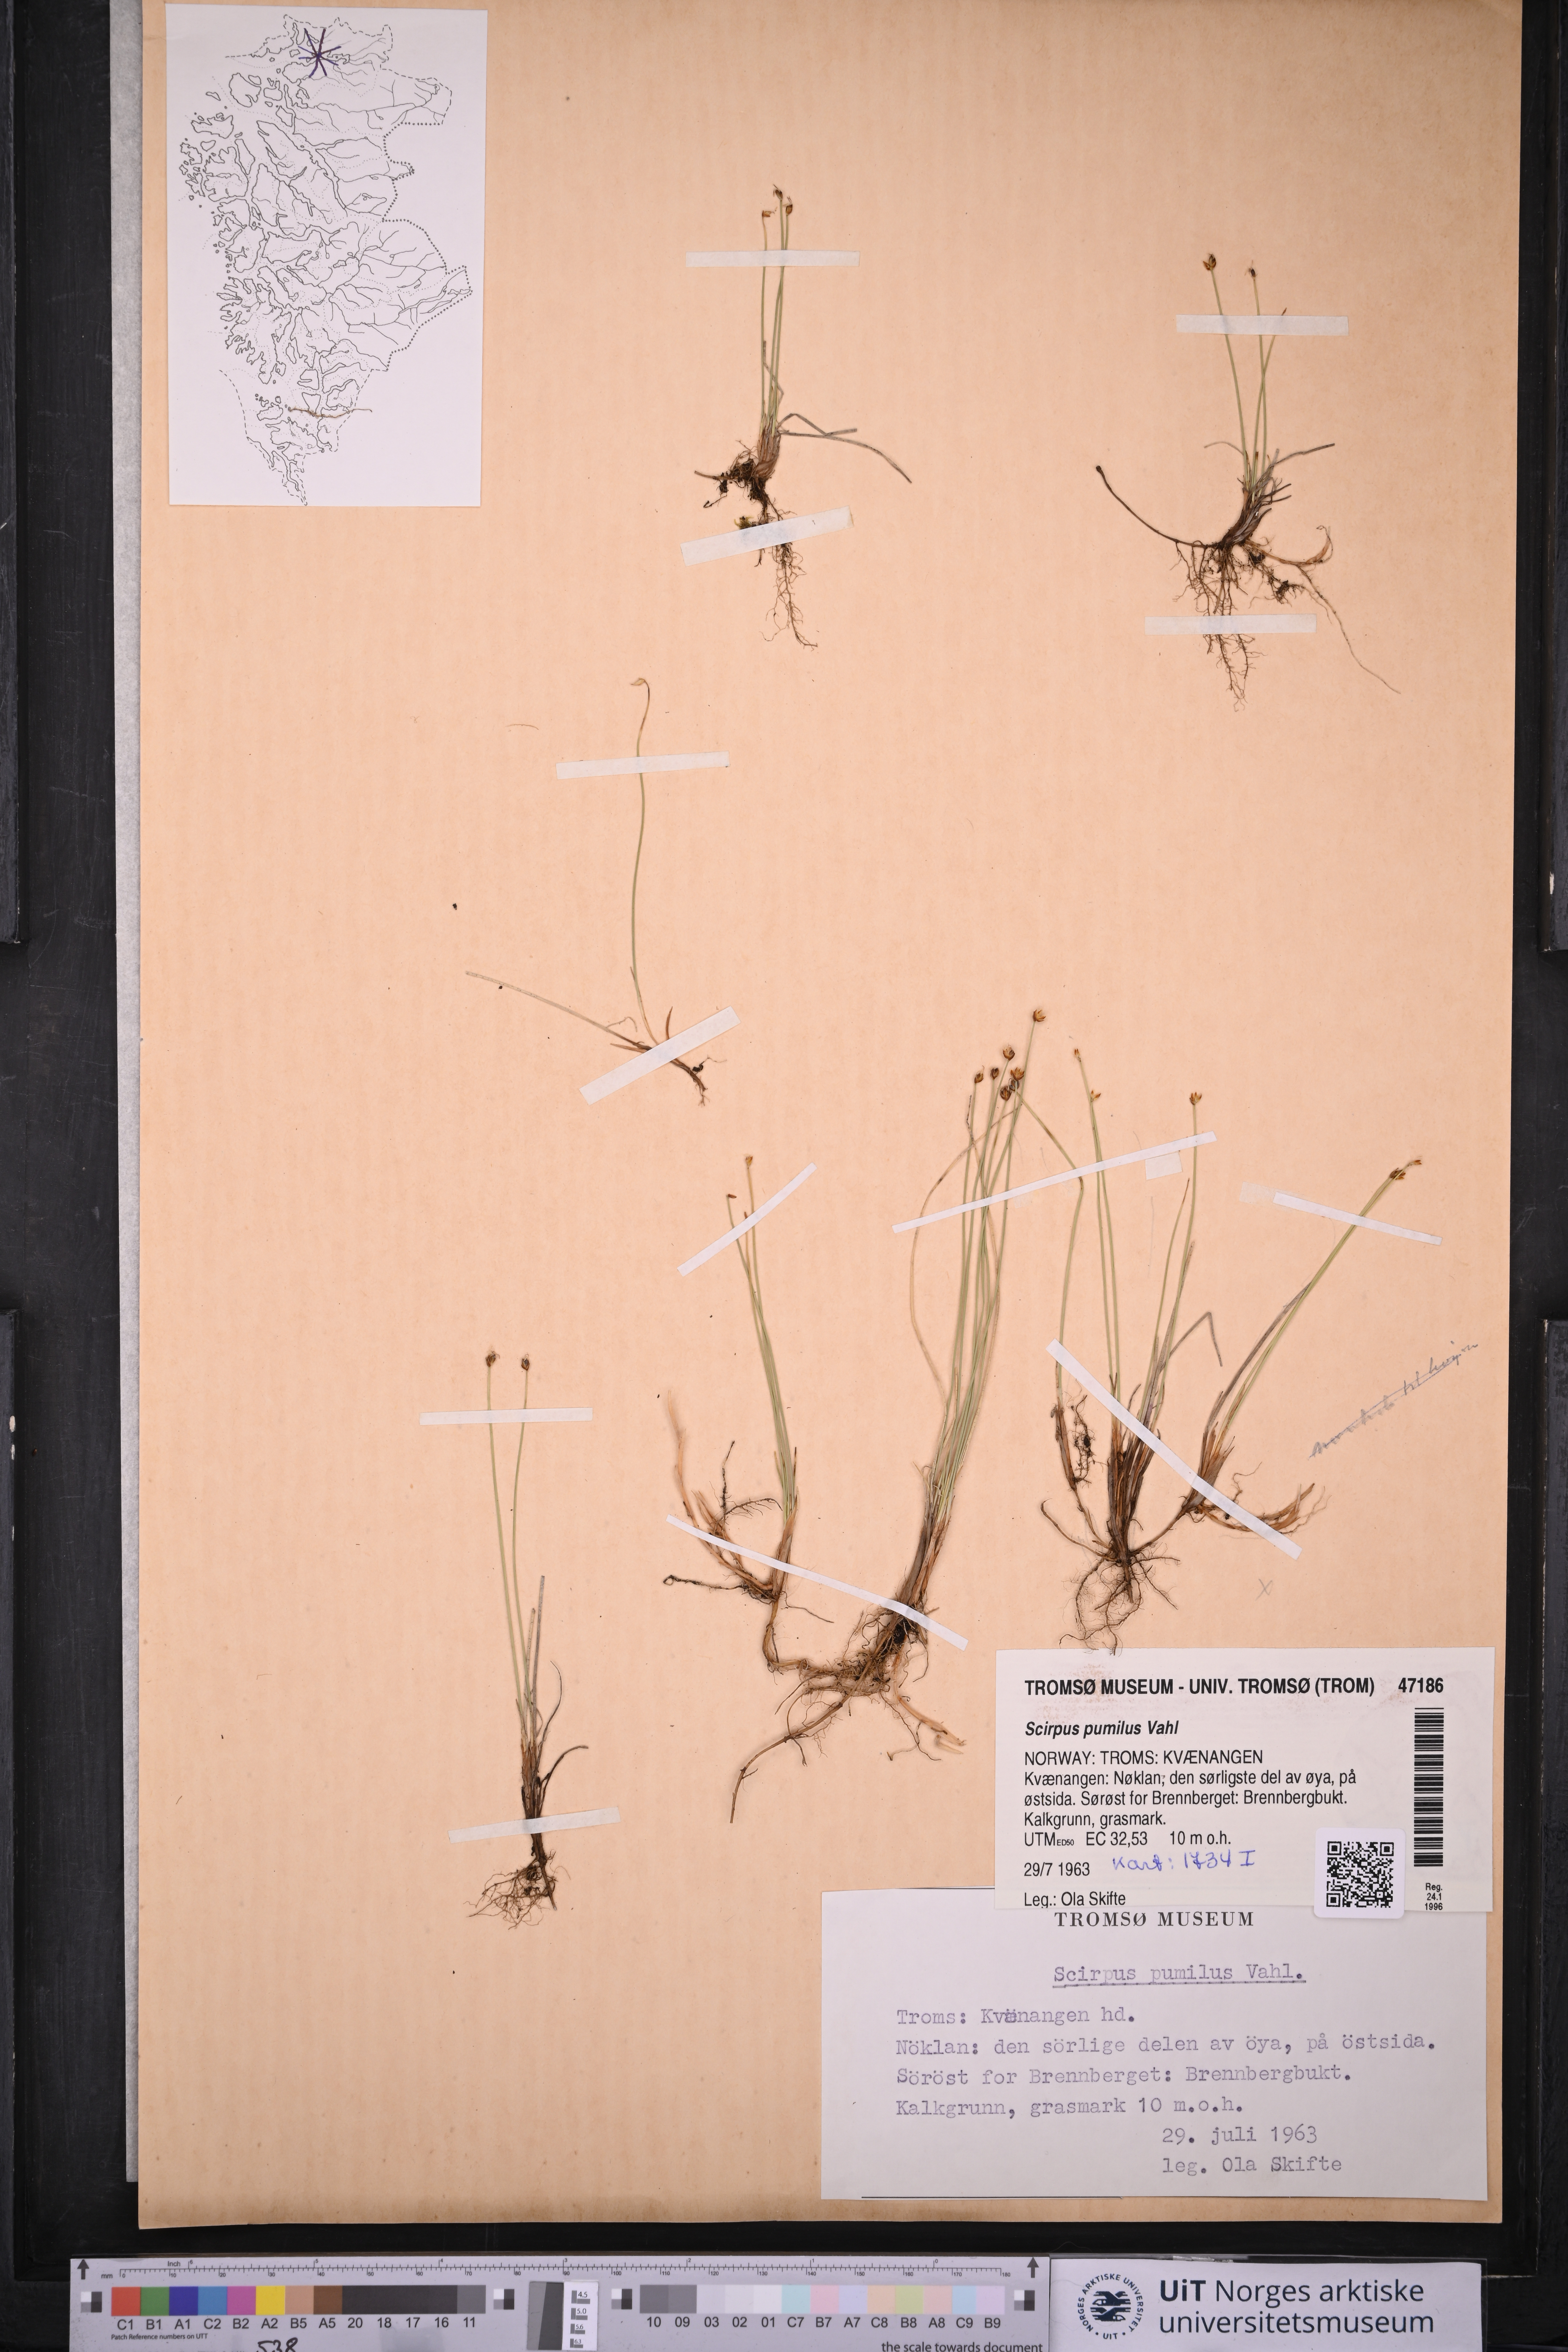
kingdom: Plantae
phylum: Tracheophyta
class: Liliopsida
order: Poales
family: Cyperaceae
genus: Trichophorum
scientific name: Trichophorum pumilum
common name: Rolland's bulrush
